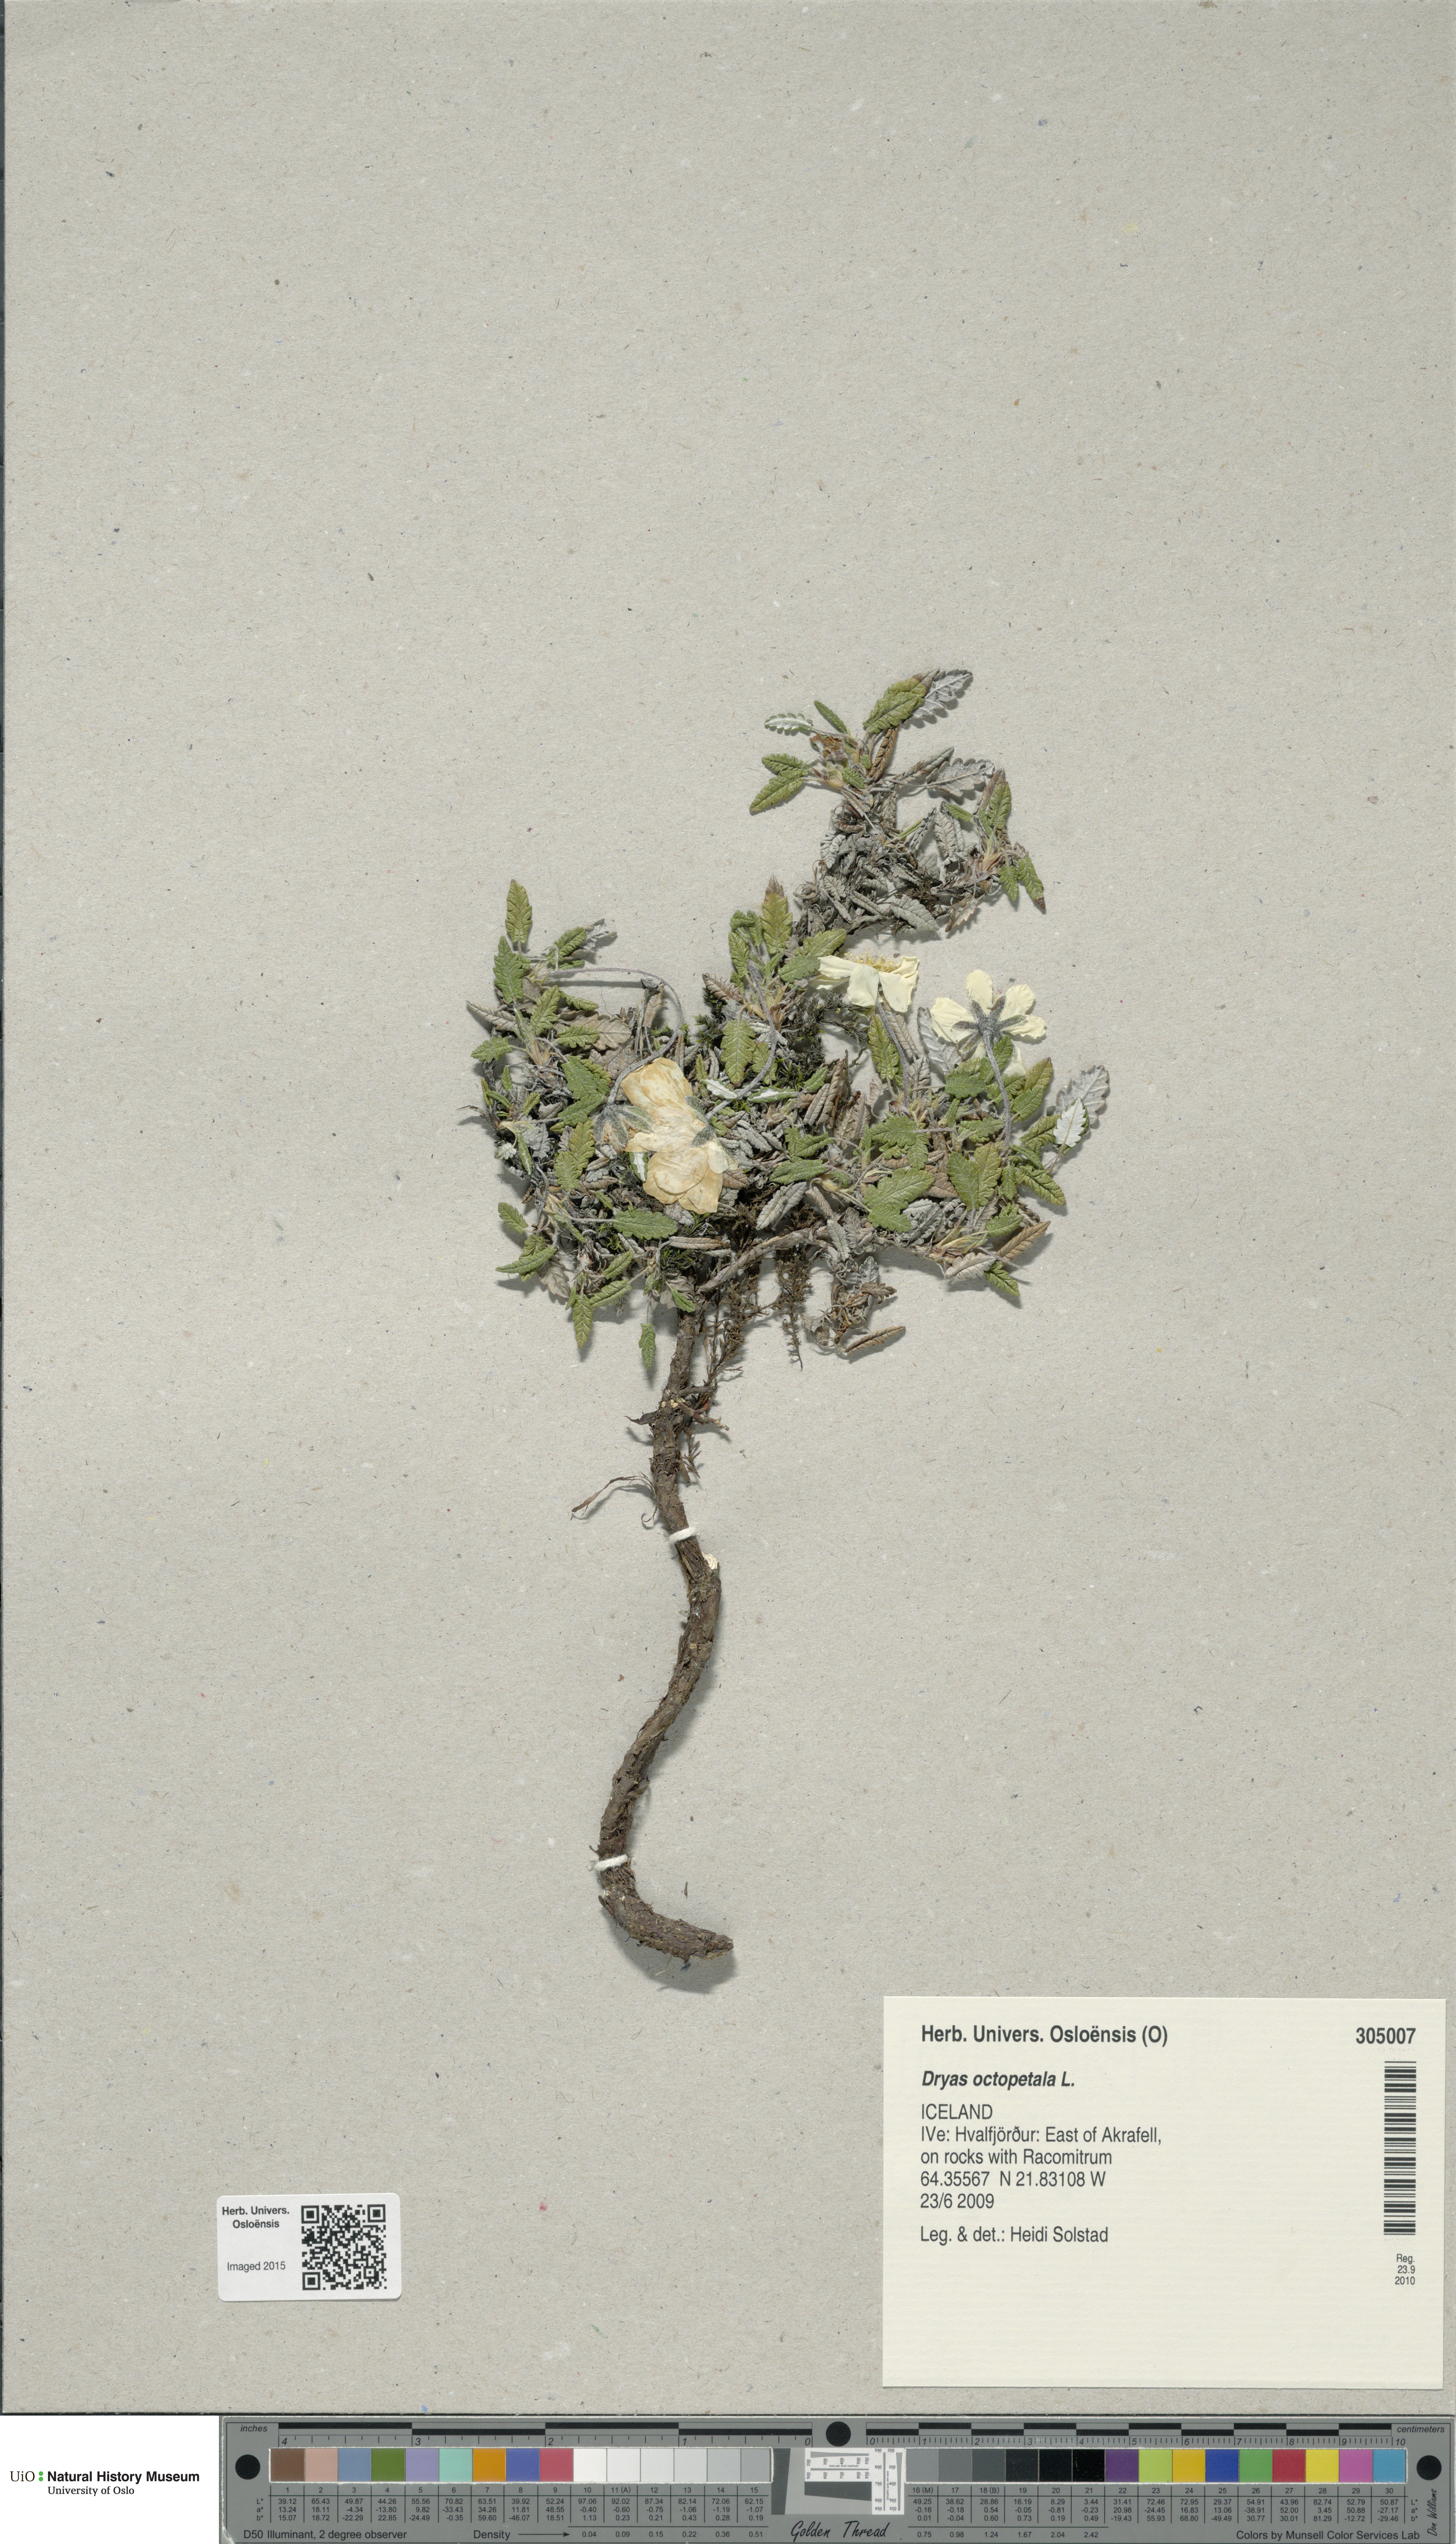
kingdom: Plantae
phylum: Tracheophyta
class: Magnoliopsida
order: Rosales
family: Rosaceae
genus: Dryas
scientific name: Dryas octopetala
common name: Eight-petal mountain-avens
